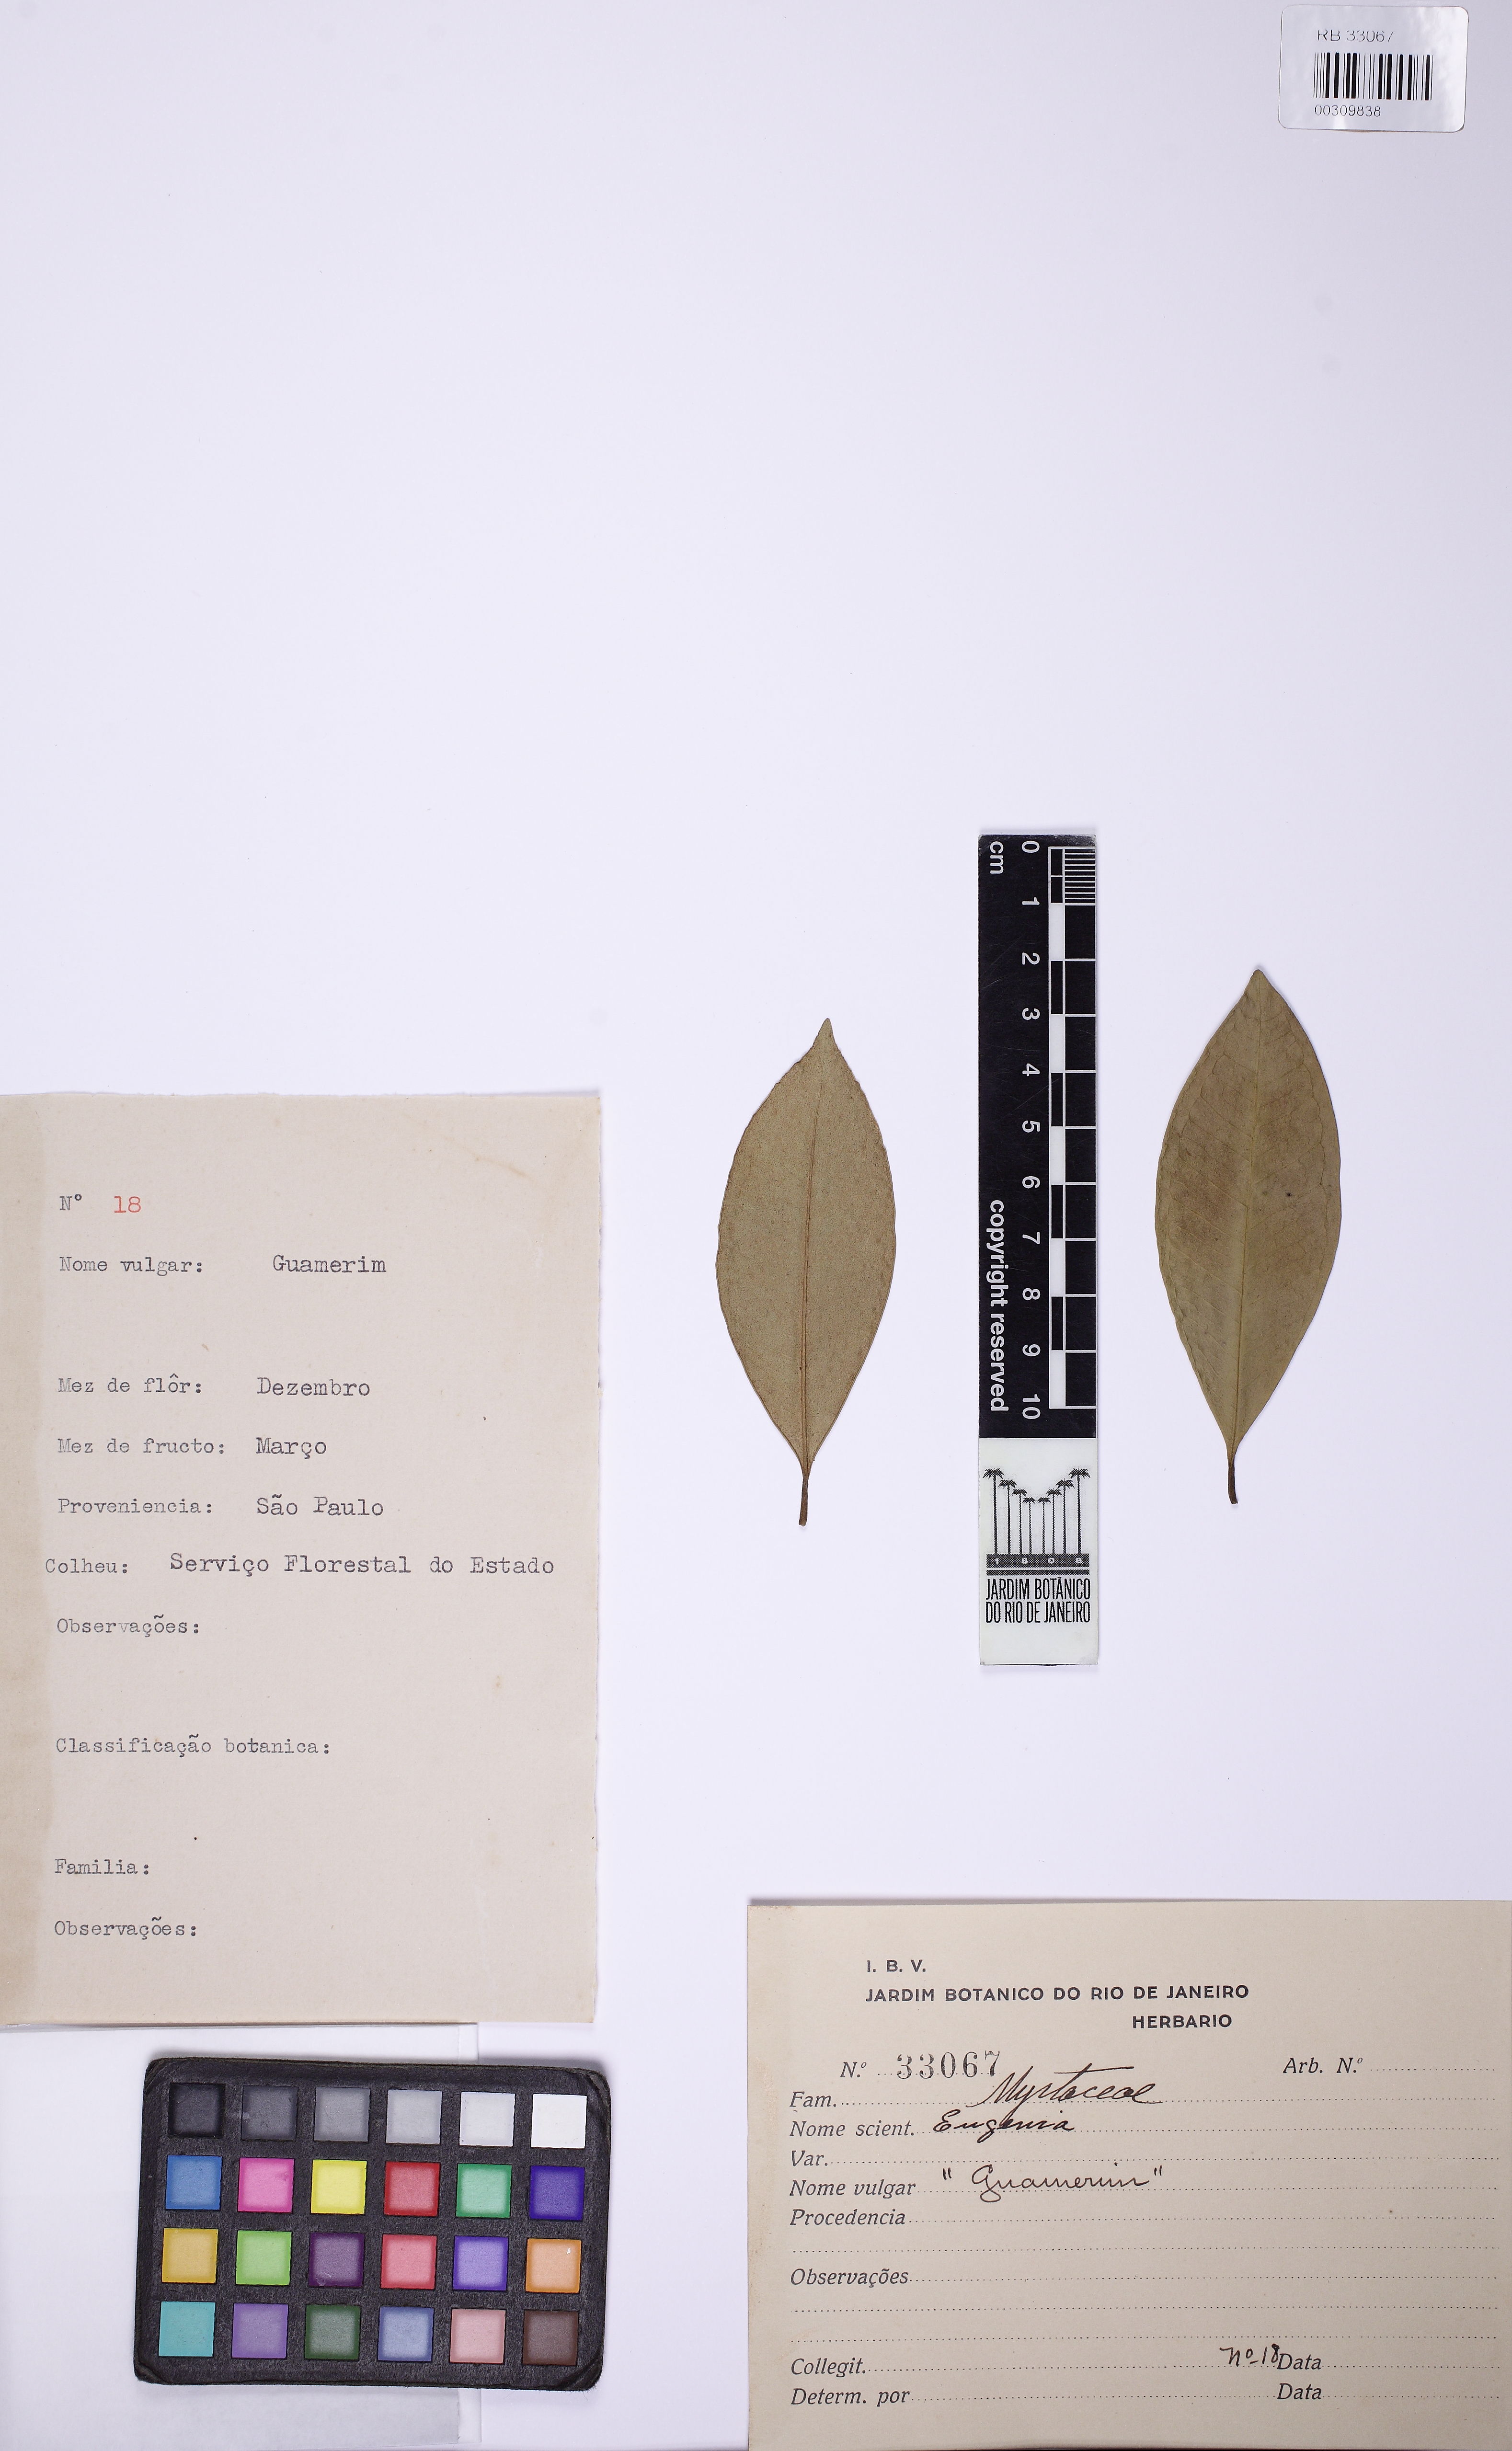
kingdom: Plantae
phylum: Tracheophyta
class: Magnoliopsida
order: Myrtales
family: Myrtaceae
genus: Eugenia
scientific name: Eugenia
